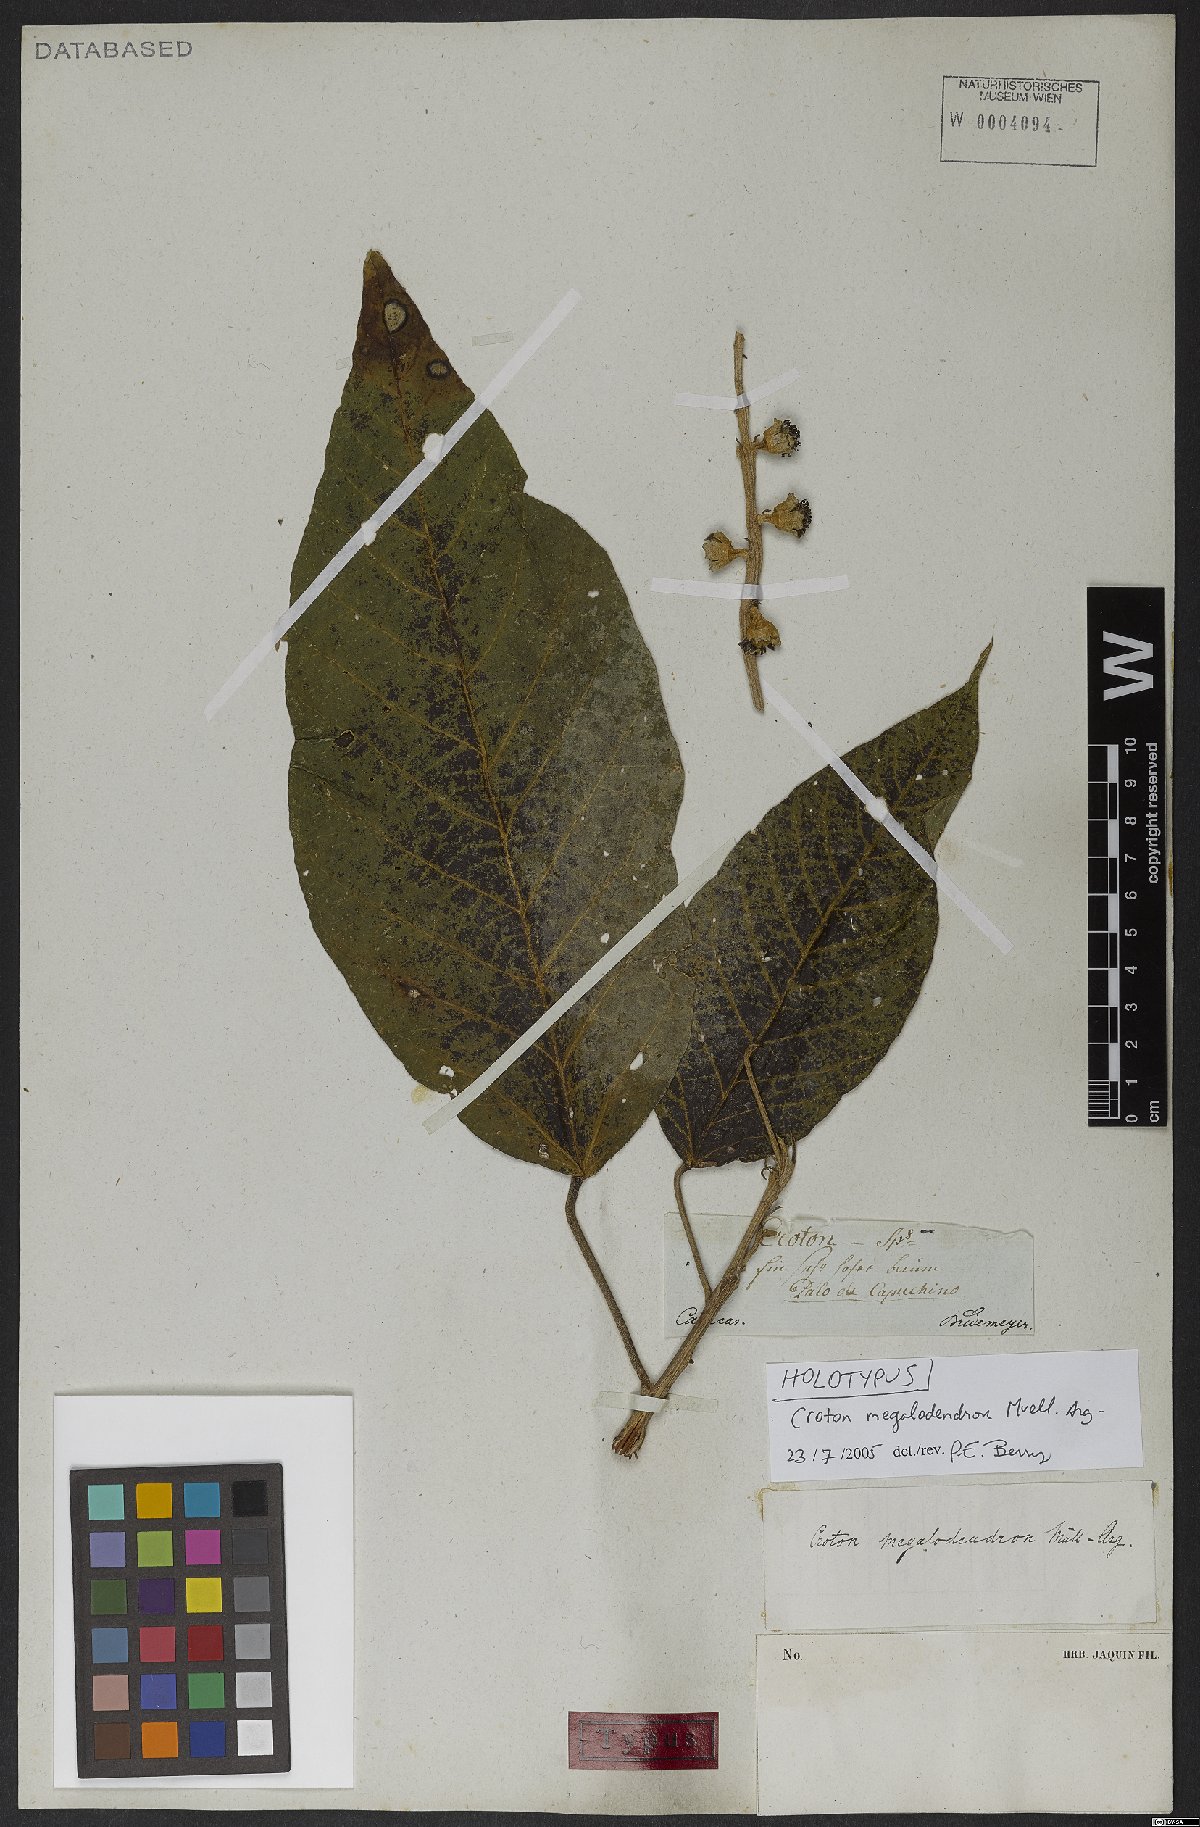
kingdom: Plantae
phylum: Tracheophyta
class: Magnoliopsida
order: Malpighiales
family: Euphorbiaceae
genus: Croton
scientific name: Croton megalodendron
